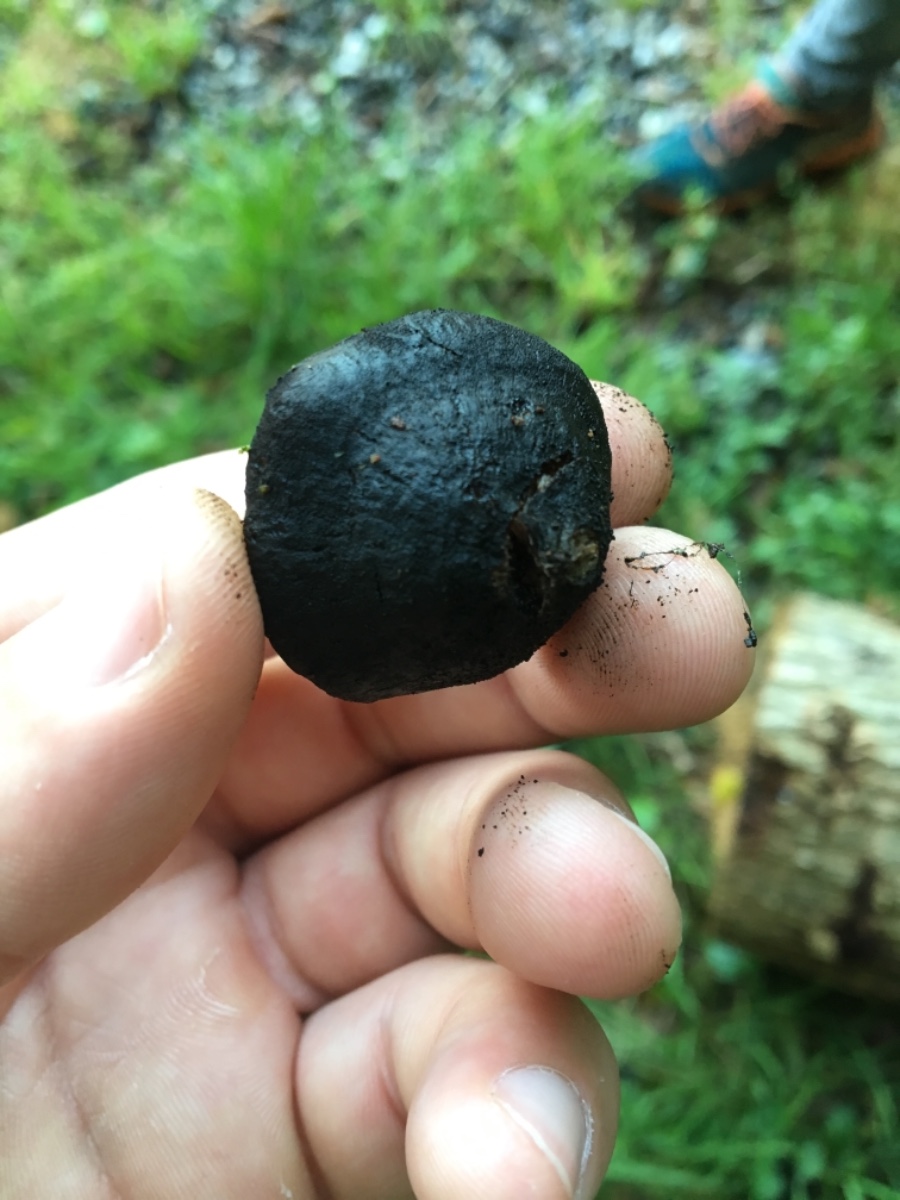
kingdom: Fungi
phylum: Ascomycota
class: Leotiomycetes
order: Phacidiales
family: Phacidiaceae
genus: Bulgaria
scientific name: Bulgaria inquinans
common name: afsmittende topsvamp
